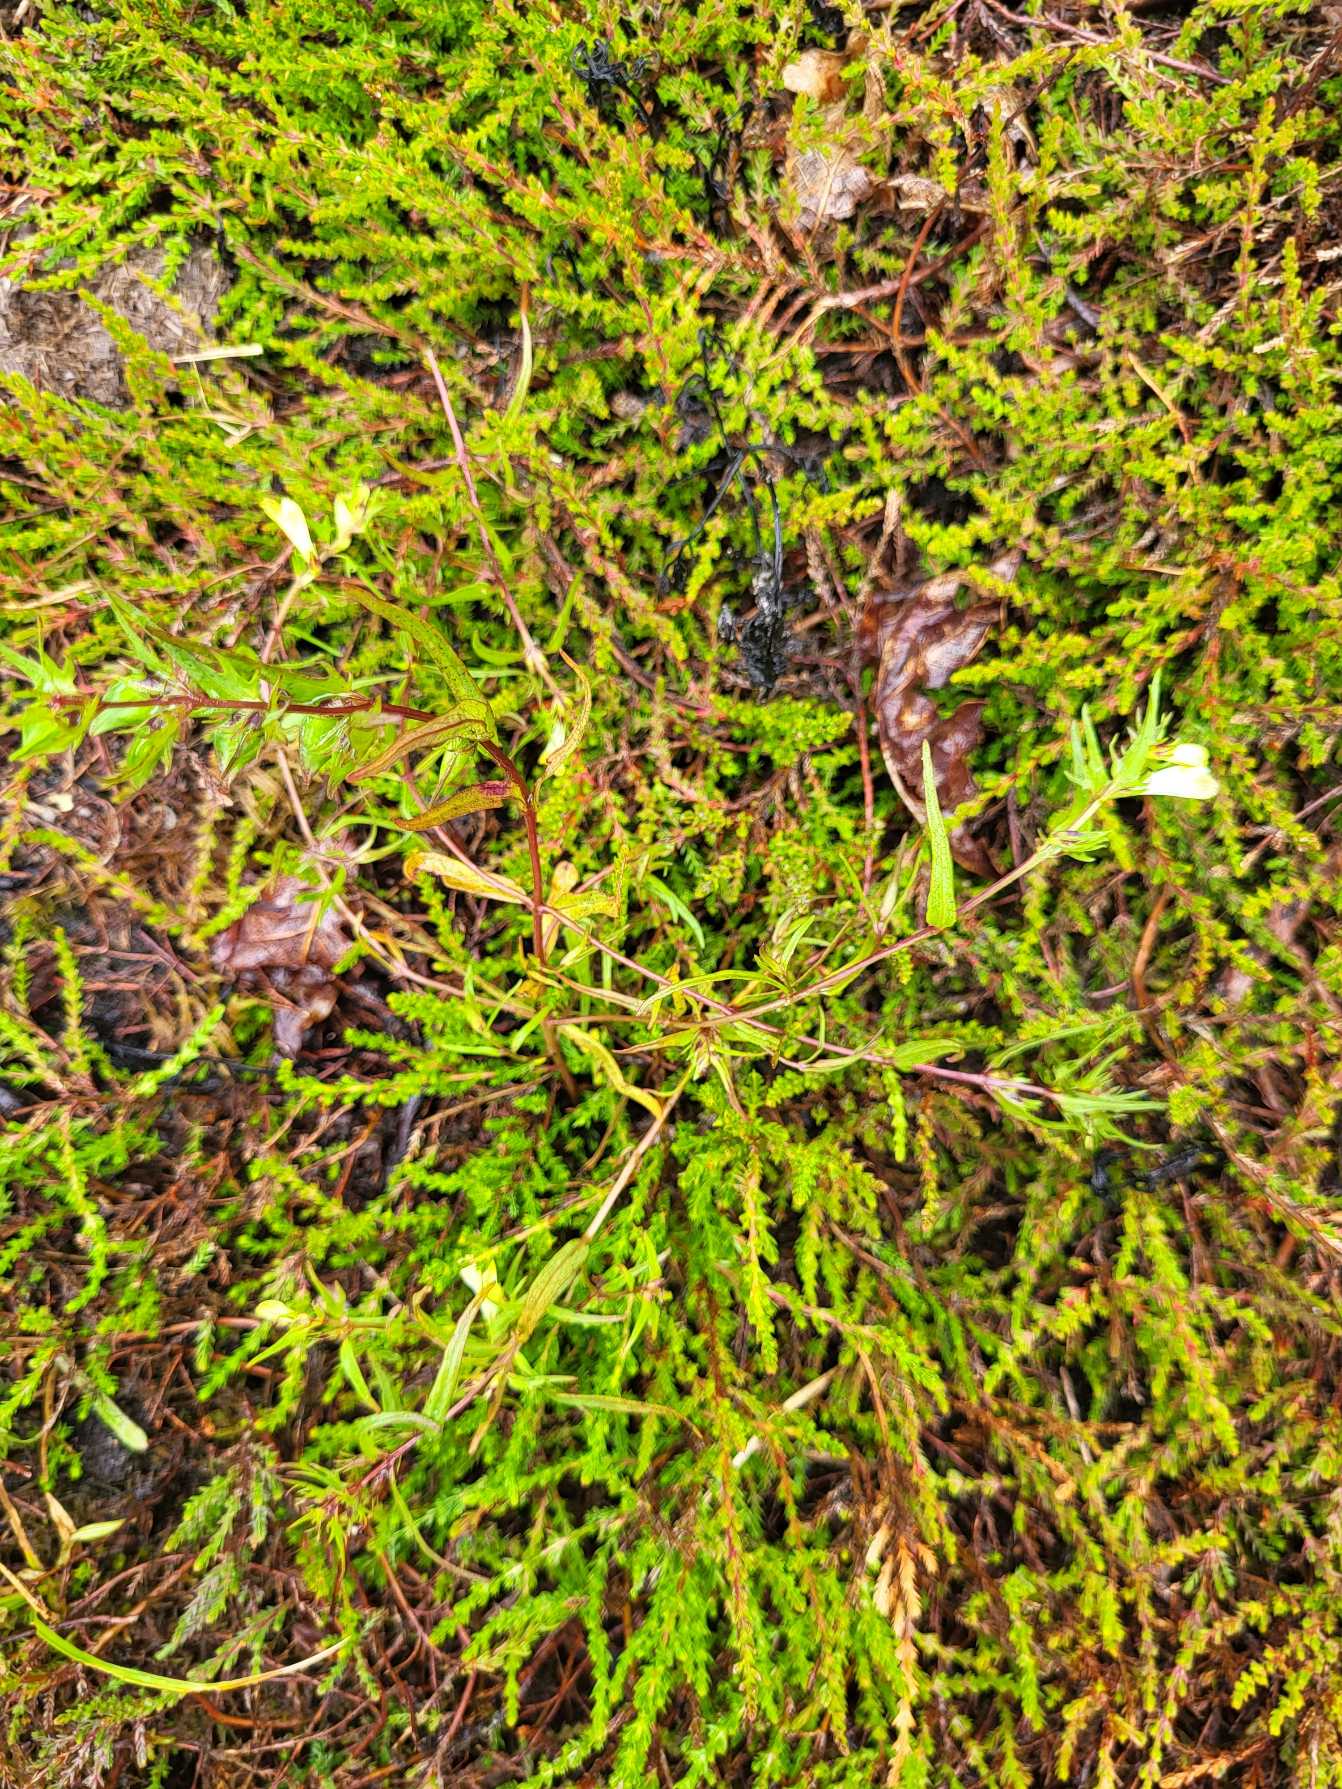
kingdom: Plantae
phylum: Tracheophyta
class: Magnoliopsida
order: Lamiales
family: Orobanchaceae
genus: Melampyrum
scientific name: Melampyrum pratense
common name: Almindelig kohvede
